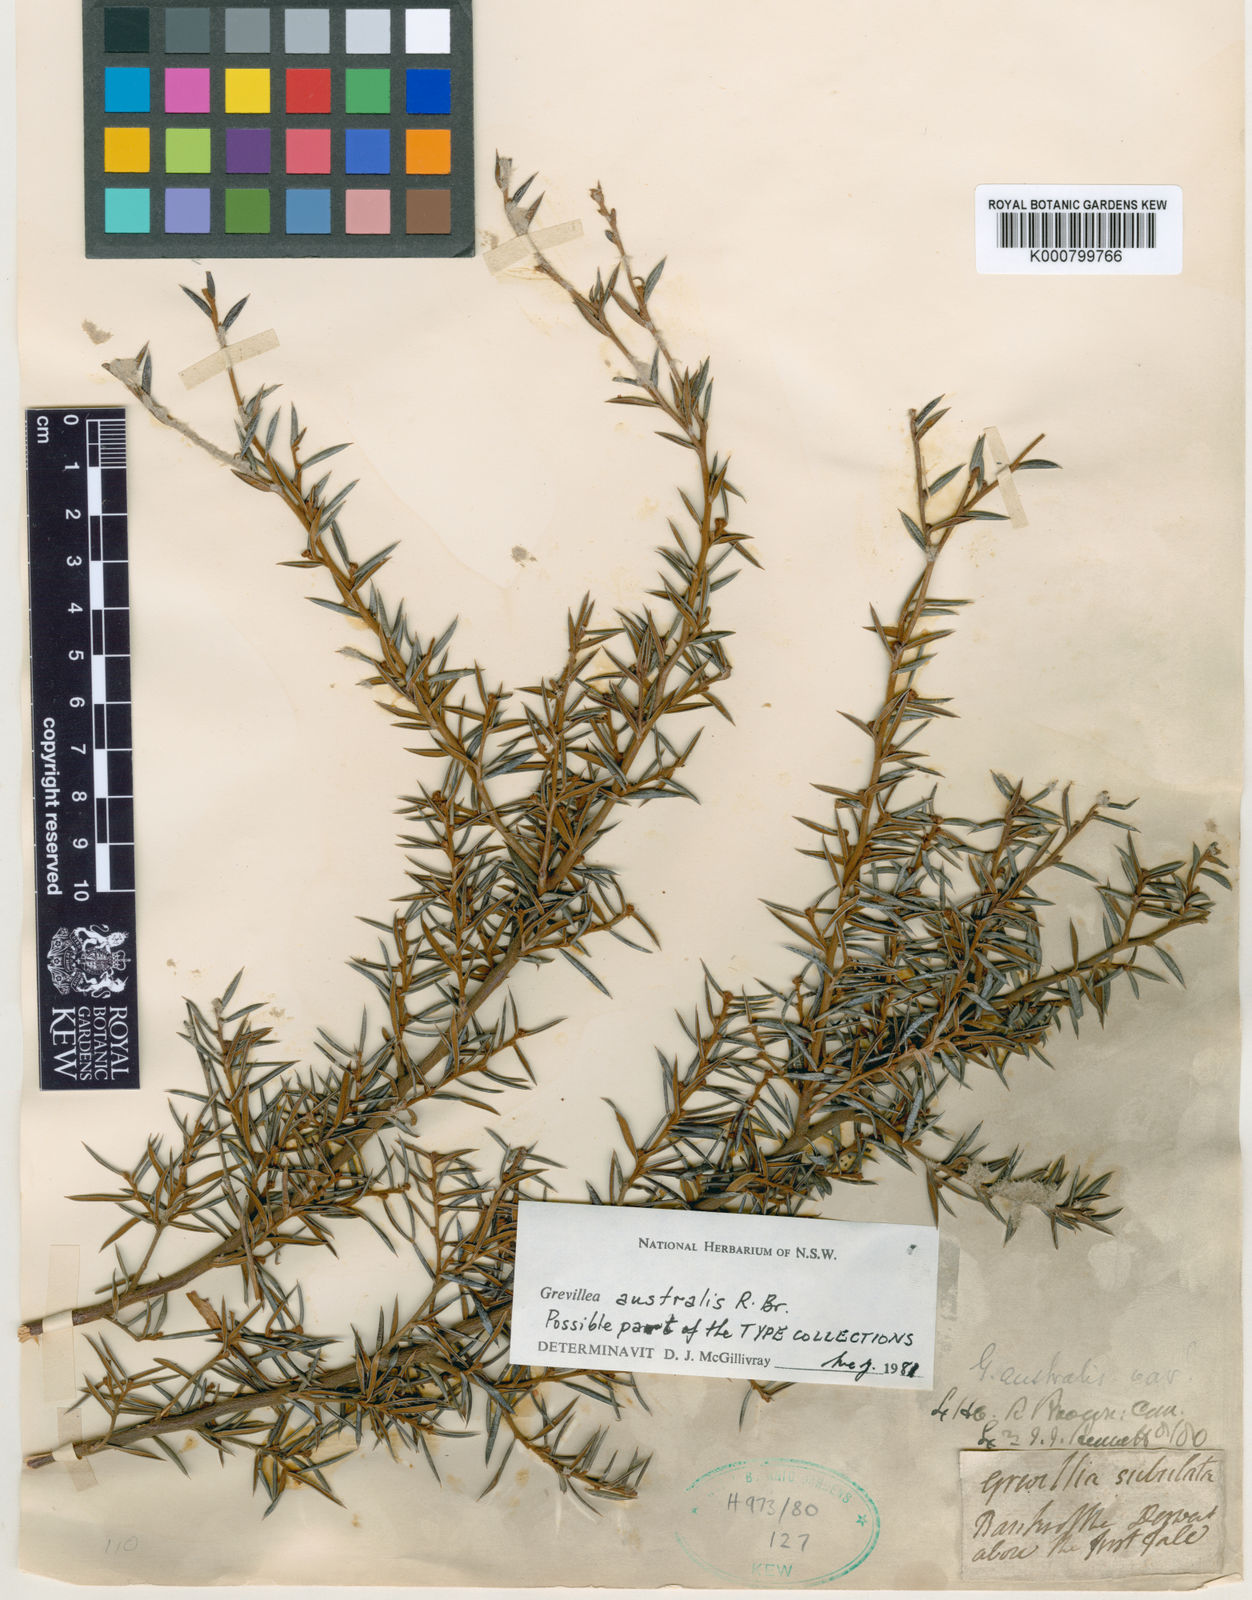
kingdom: Plantae
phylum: Tracheophyta
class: Magnoliopsida
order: Proteales
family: Proteaceae
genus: Grevillea
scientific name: Grevillea australis
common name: Alpine grevillea
